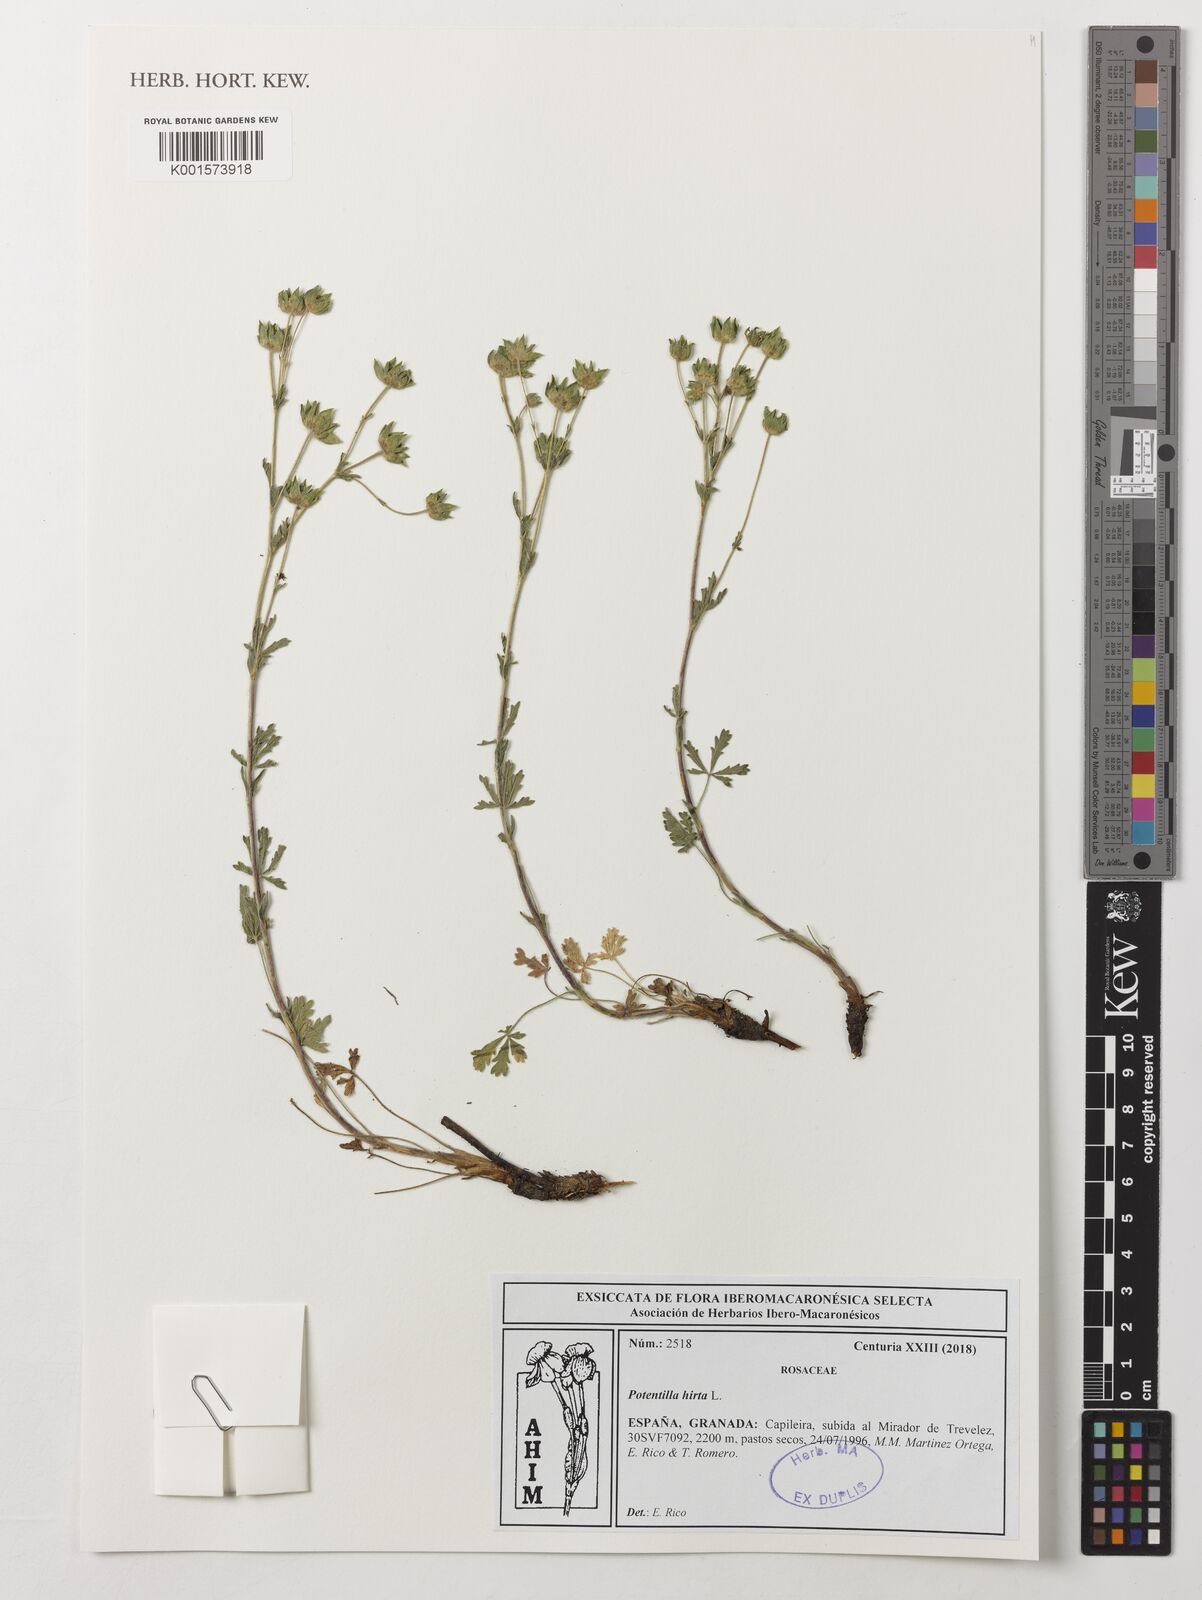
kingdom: Plantae
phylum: Tracheophyta
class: Magnoliopsida
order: Rosales
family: Rosaceae
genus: Potentilla
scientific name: Potentilla hirta
